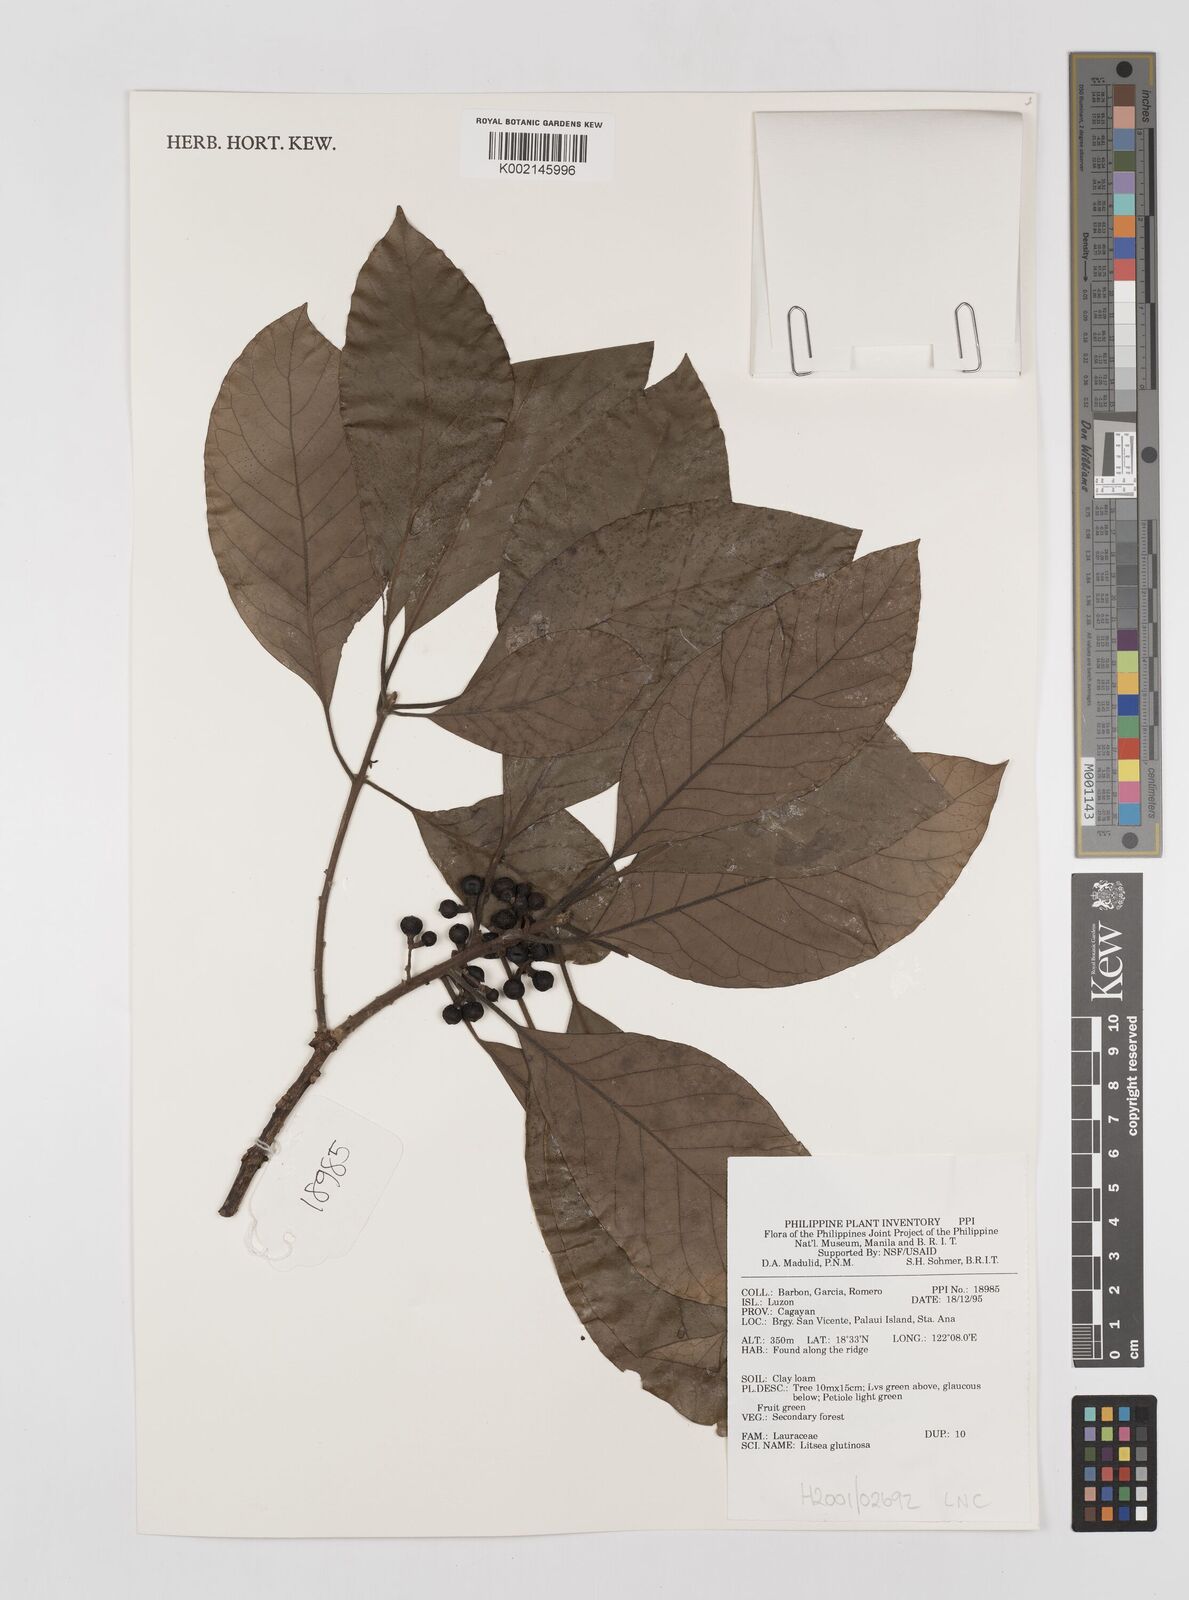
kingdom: Plantae
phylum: Tracheophyta
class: Magnoliopsida
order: Laurales
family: Lauraceae
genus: Litsea
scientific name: Litsea
